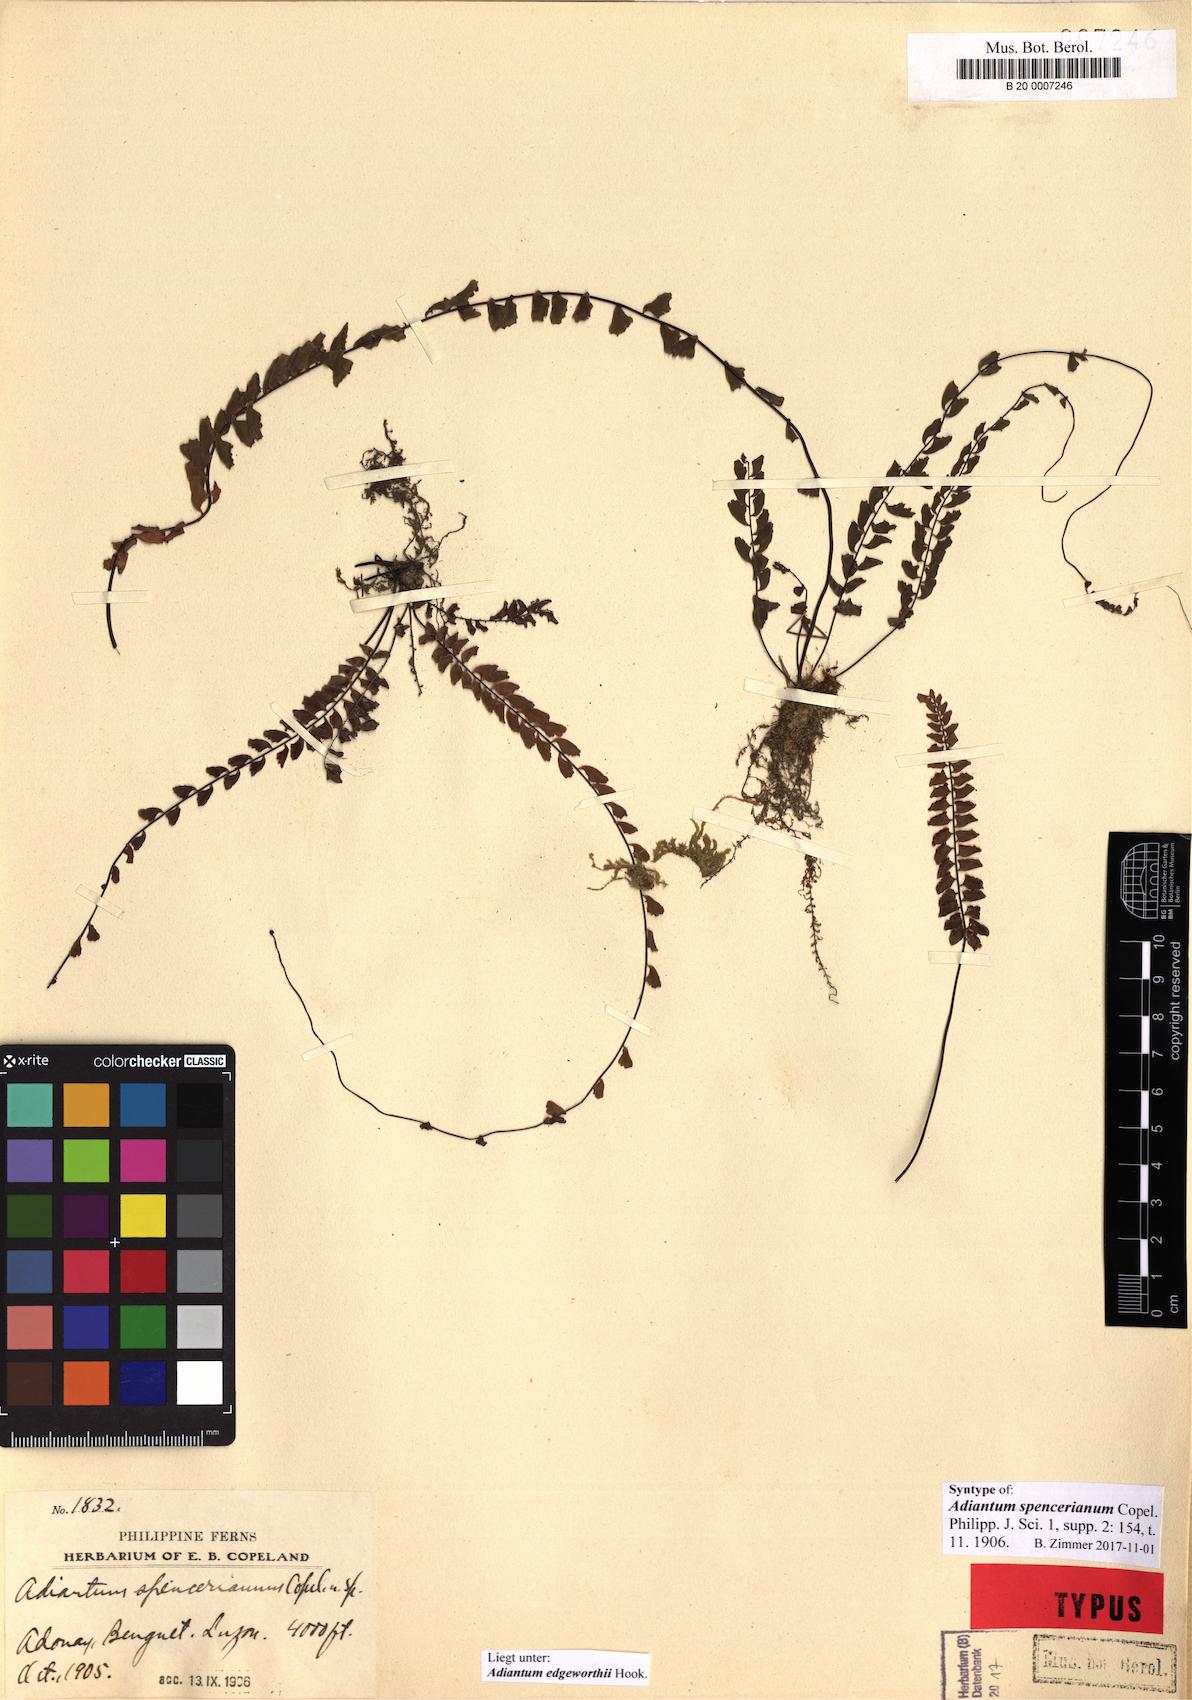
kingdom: Plantae
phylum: Tracheophyta
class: Polypodiopsida
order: Polypodiales
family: Pteridaceae
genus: Adiantum
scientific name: Adiantum edgeworthii
